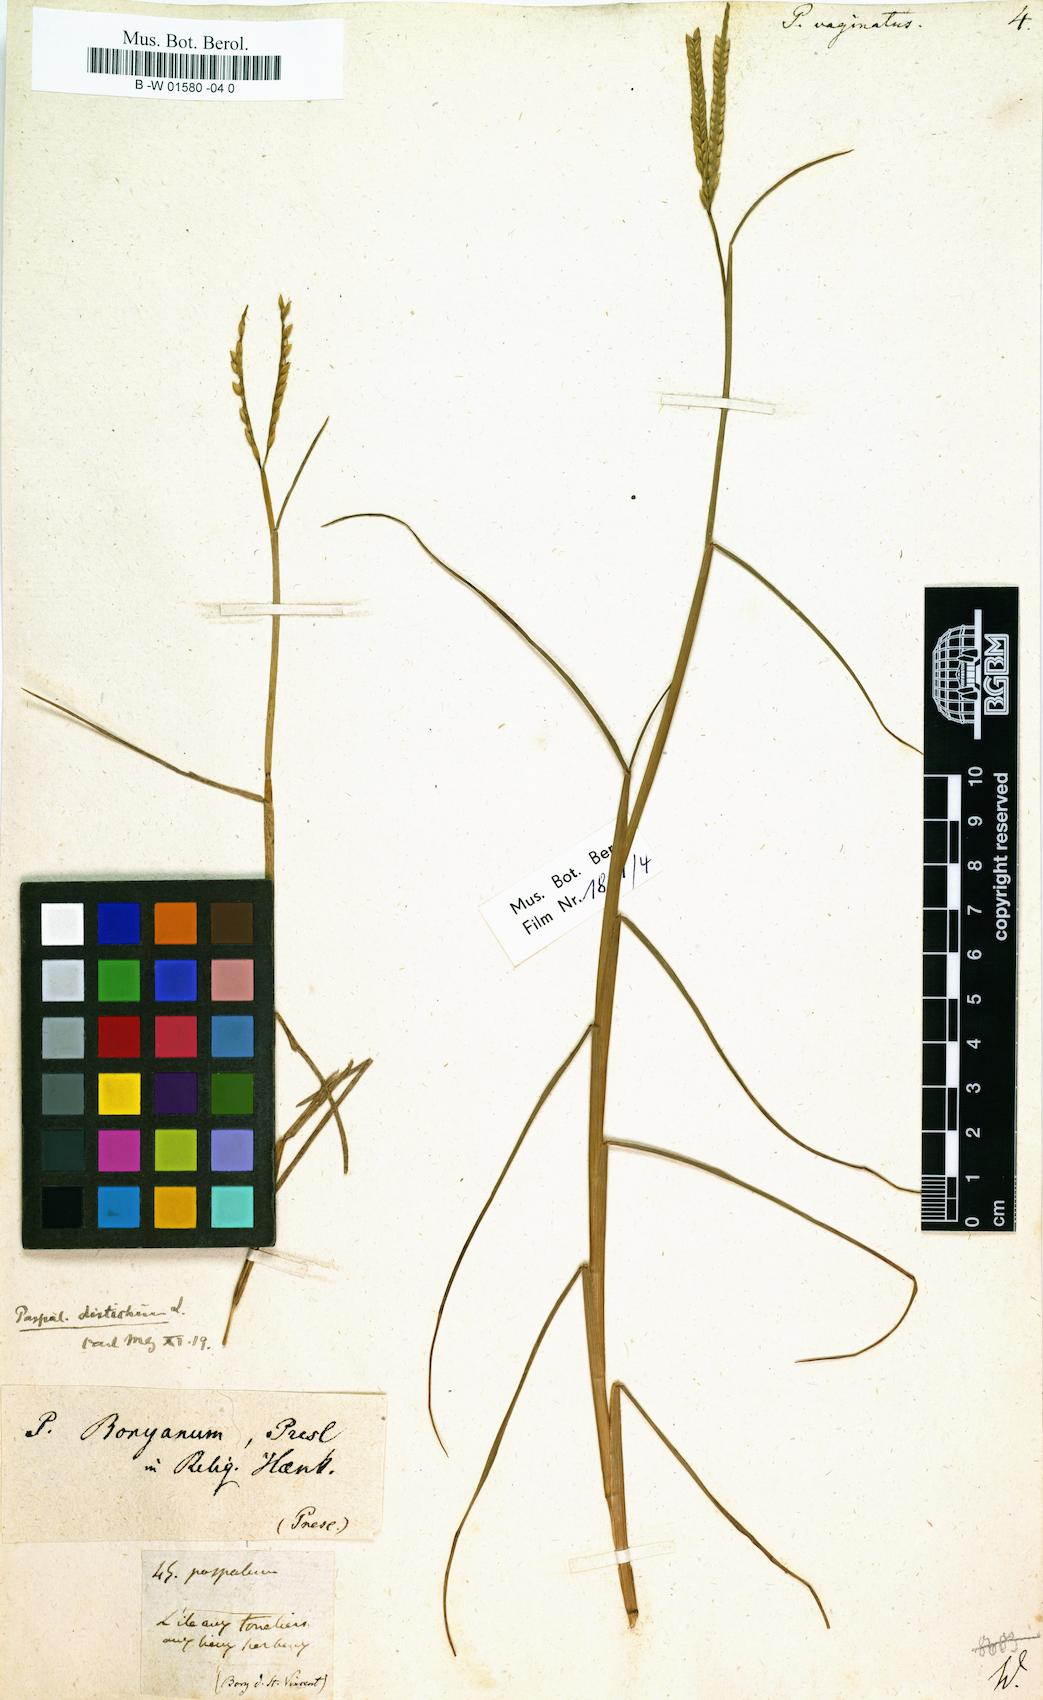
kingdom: Plantae
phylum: Tracheophyta
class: Liliopsida
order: Poales
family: Poaceae
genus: Paspalus
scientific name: Paspalus
